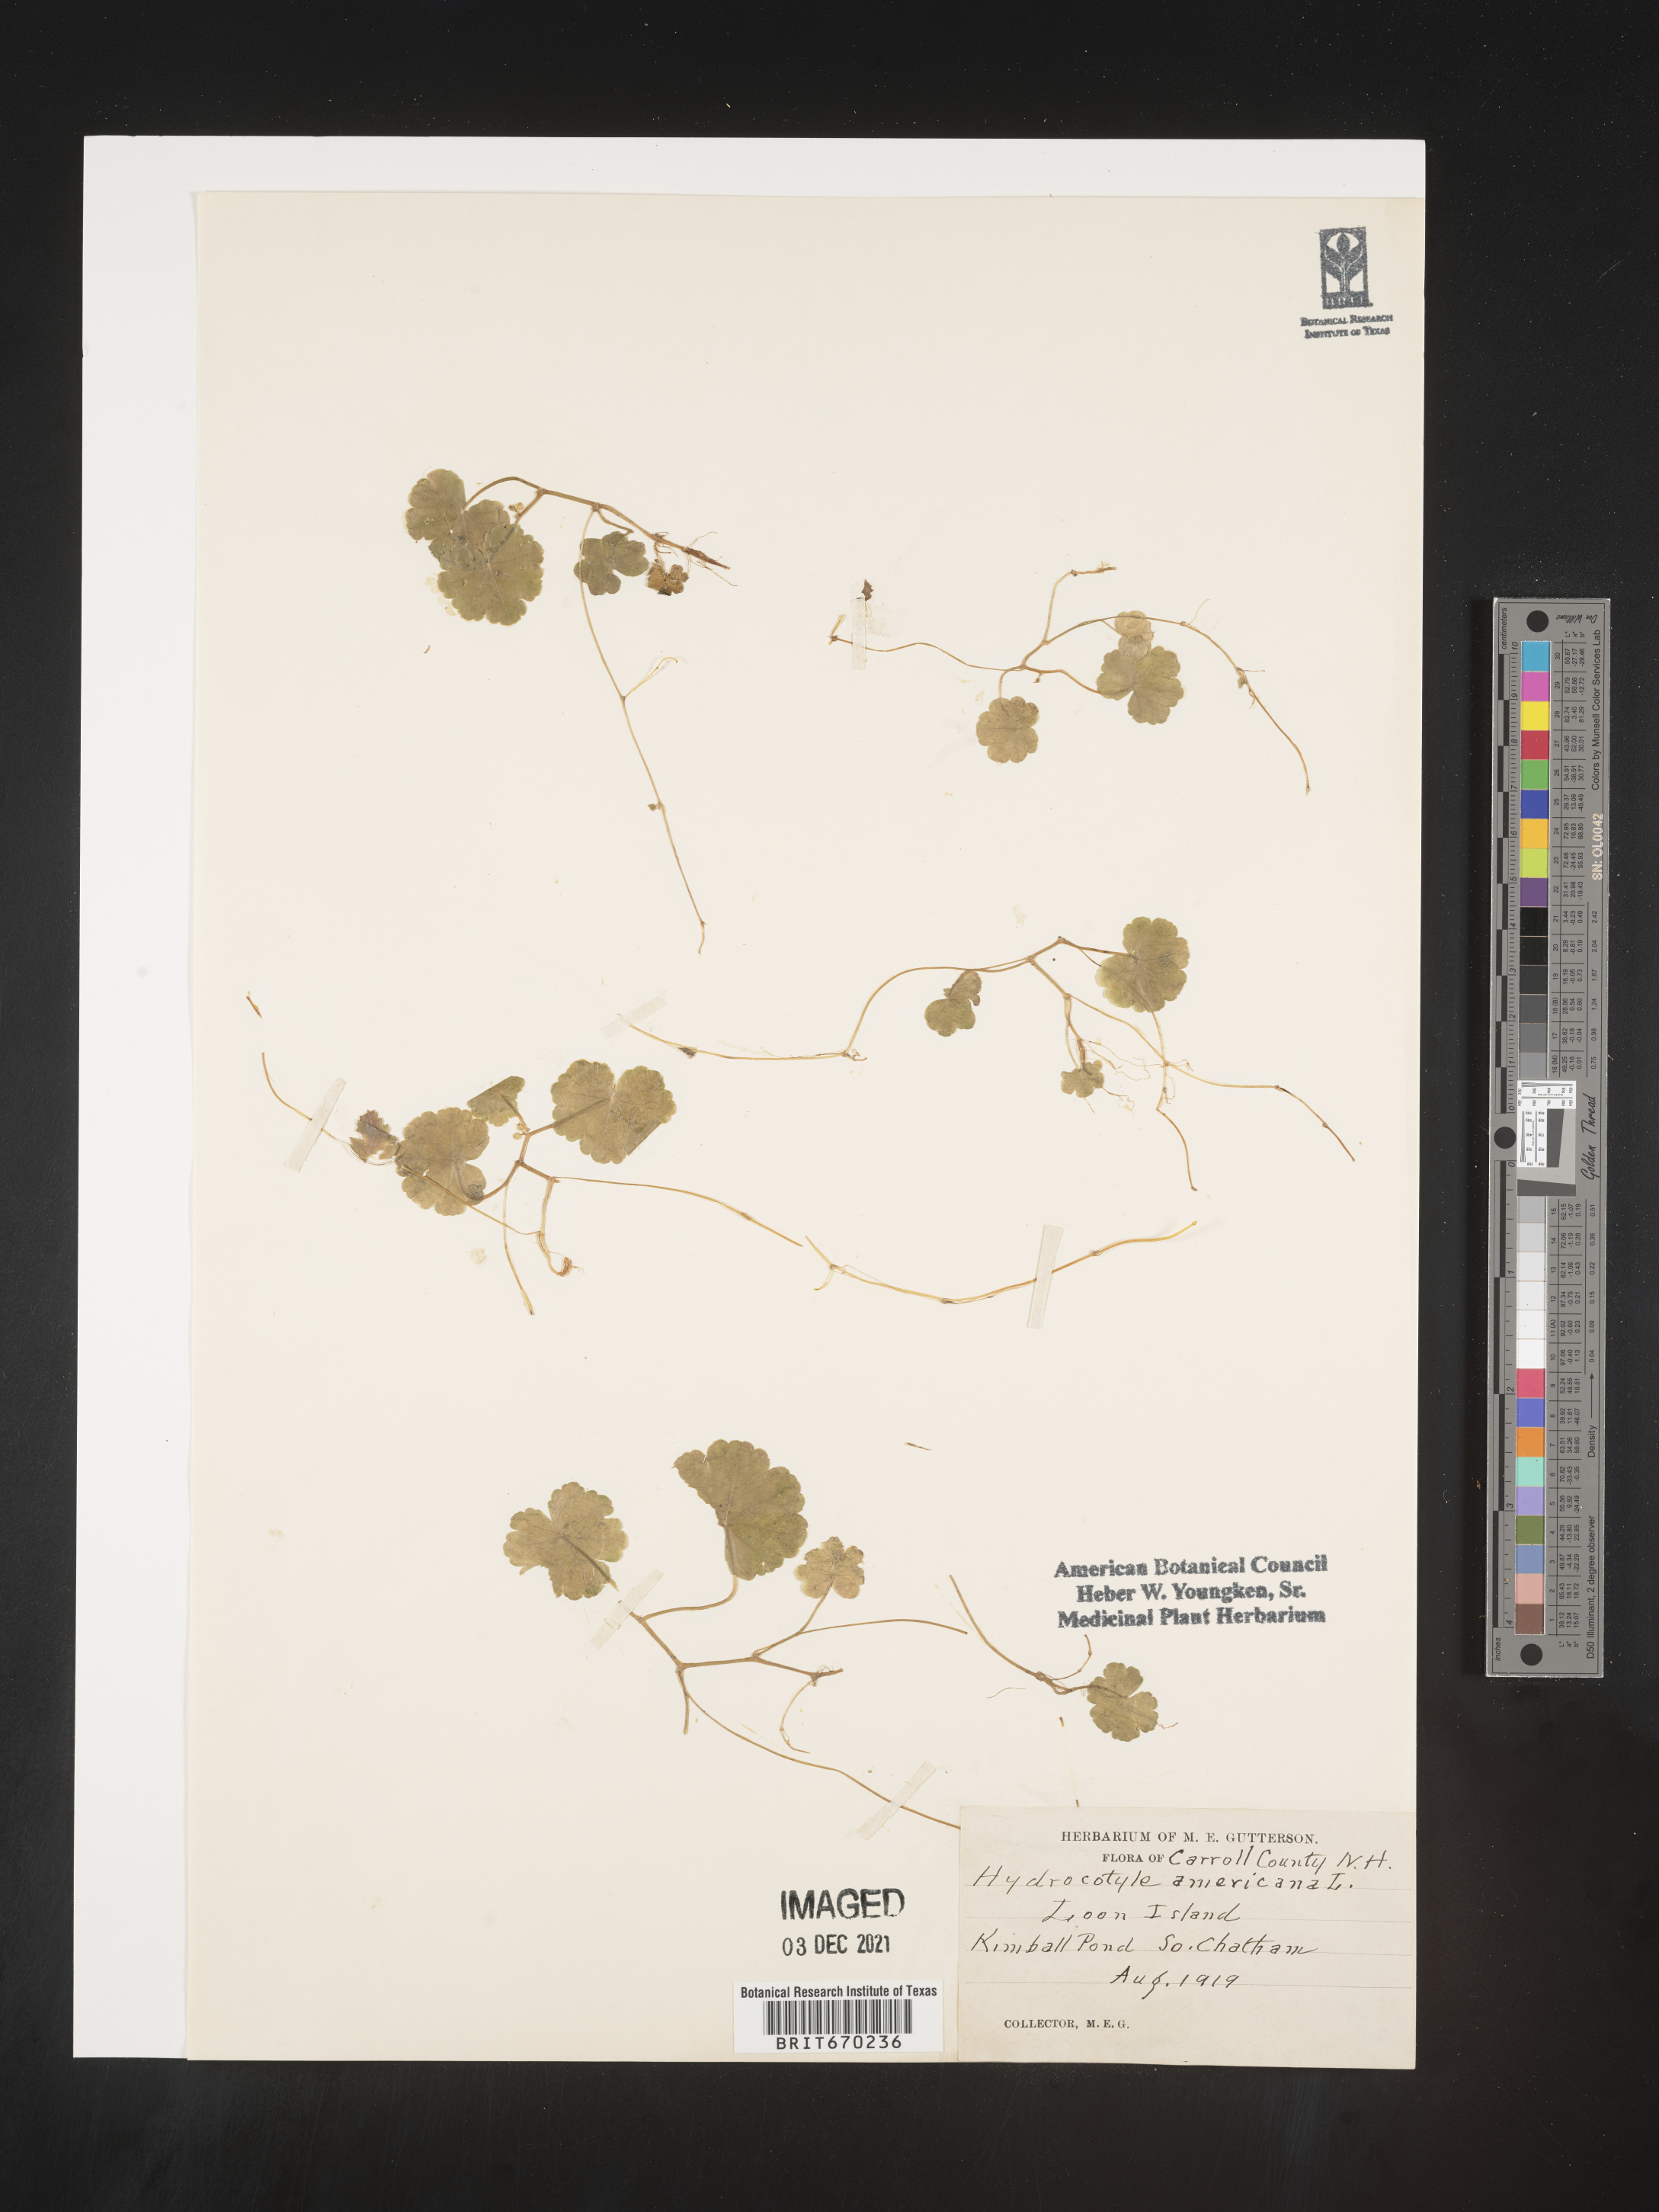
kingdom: Plantae
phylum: Tracheophyta
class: Magnoliopsida
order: Apiales
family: Araliaceae
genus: Hydrocotyle
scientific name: Hydrocotyle
